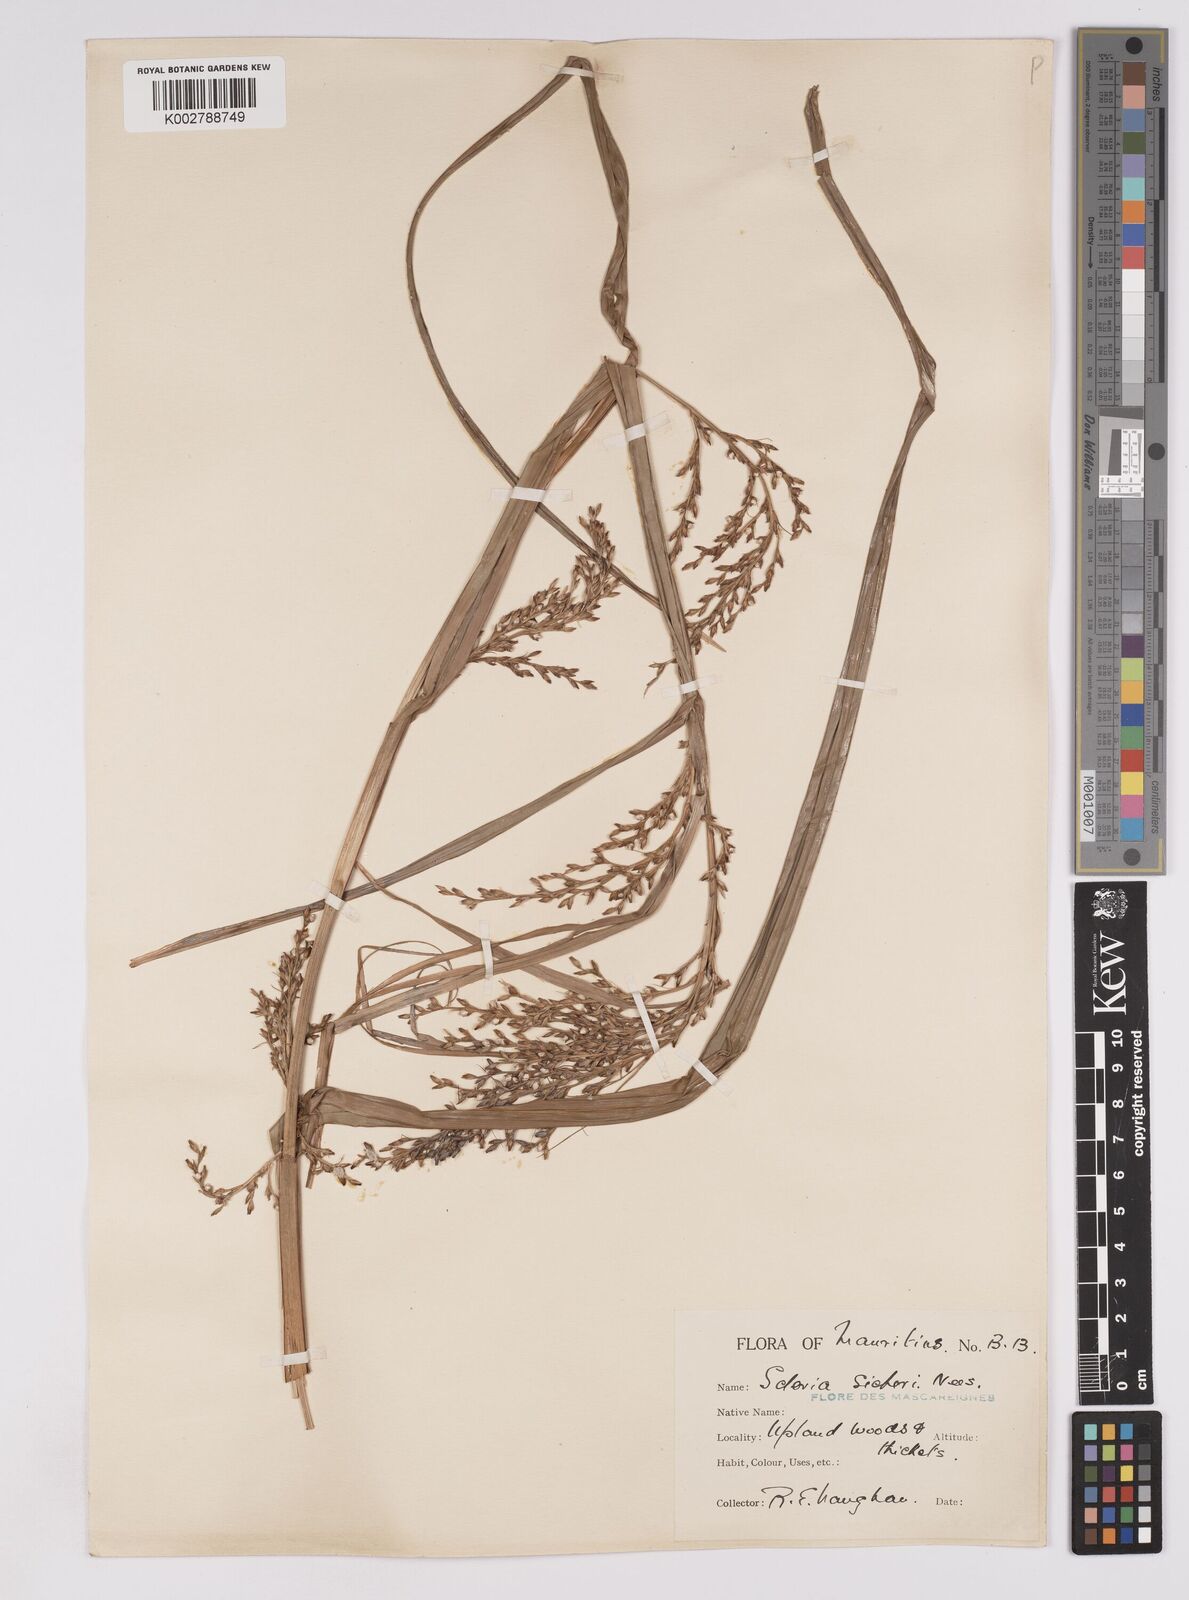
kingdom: Plantae
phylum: Tracheophyta
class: Liliopsida
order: Poales
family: Cyperaceae
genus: Scleria
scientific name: Scleria gaertneri
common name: Cortadera blanca
